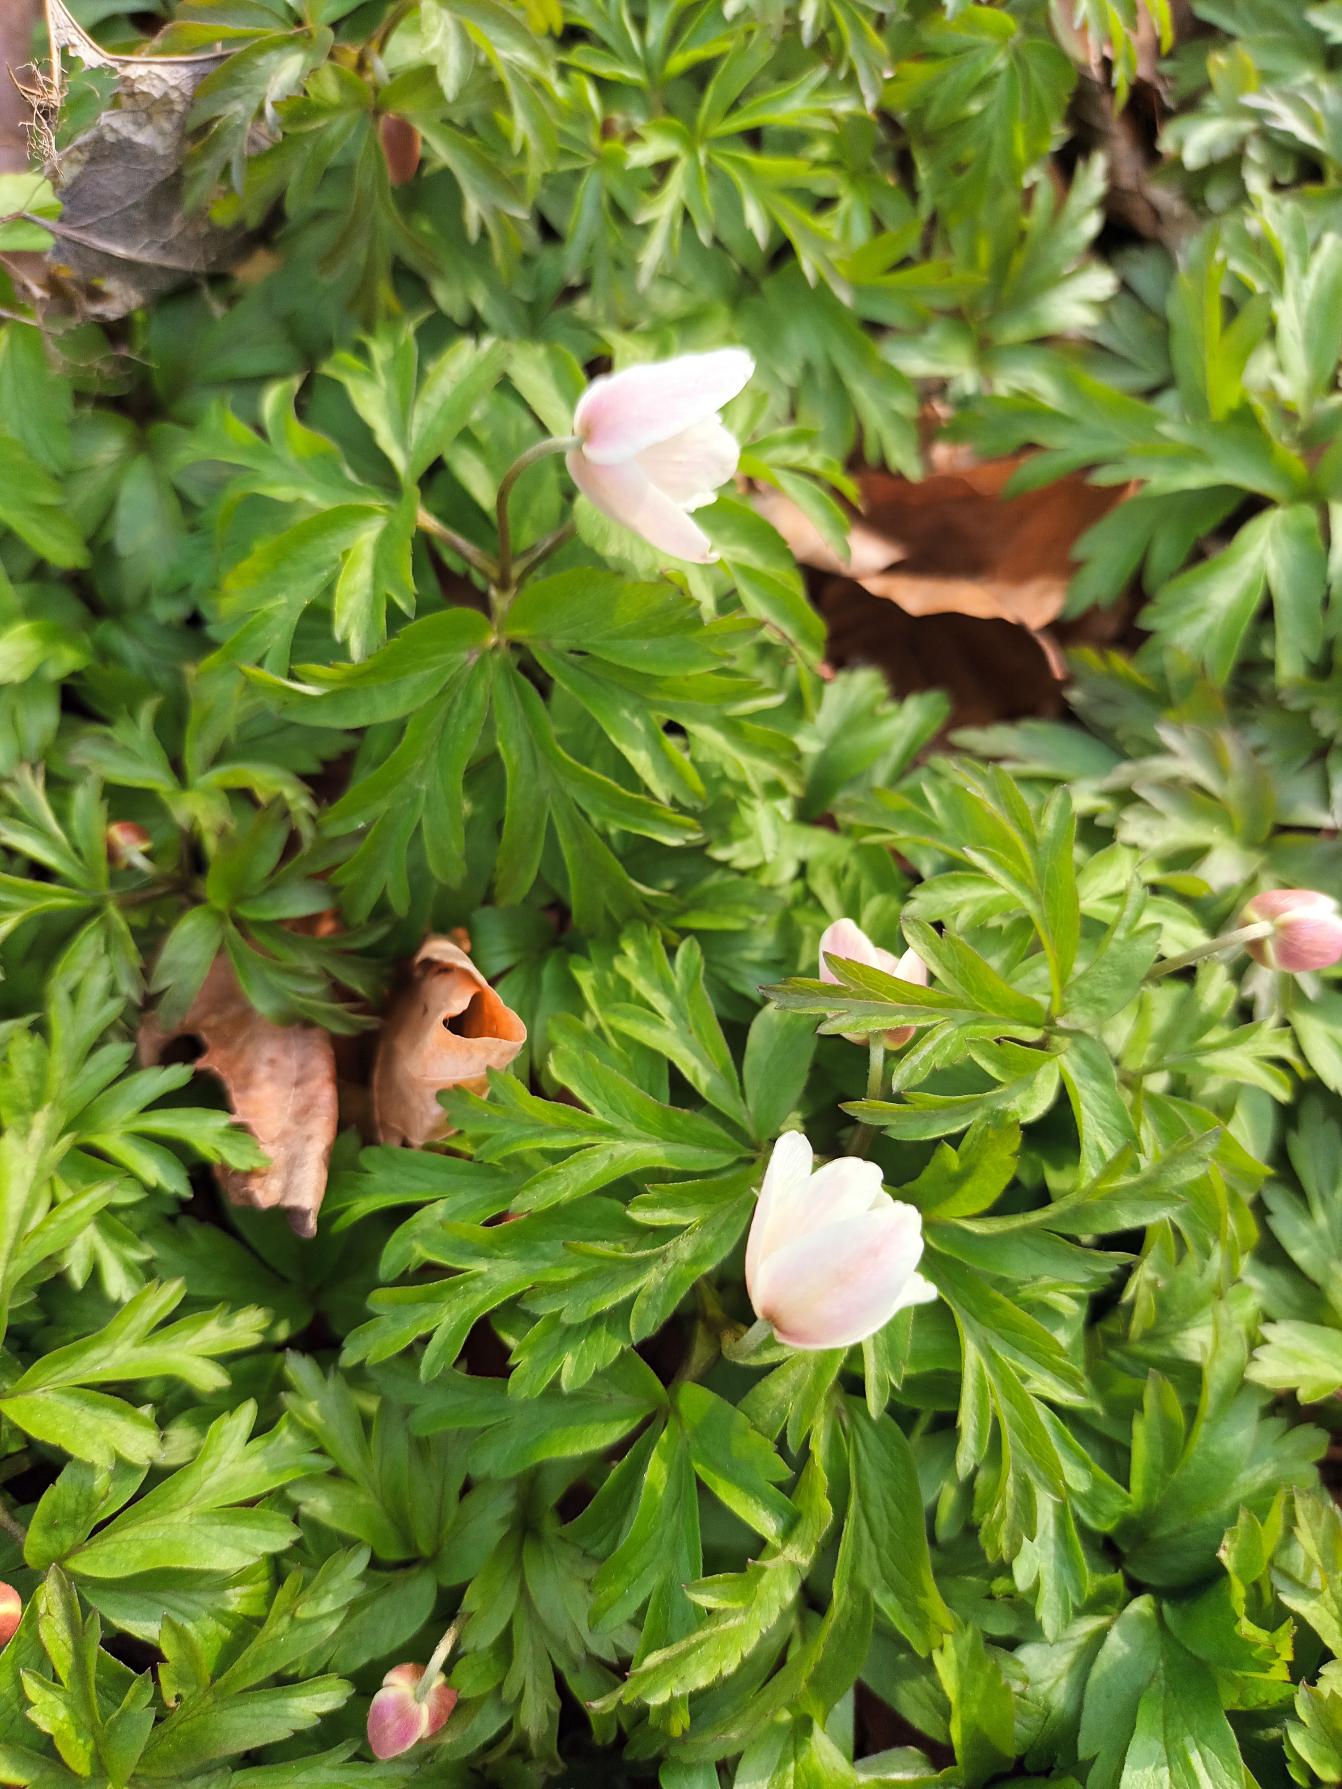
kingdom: Plantae
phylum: Tracheophyta
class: Magnoliopsida
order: Ranunculales
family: Ranunculaceae
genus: Anemone
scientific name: Anemone nemorosa
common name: Hvid anemone
